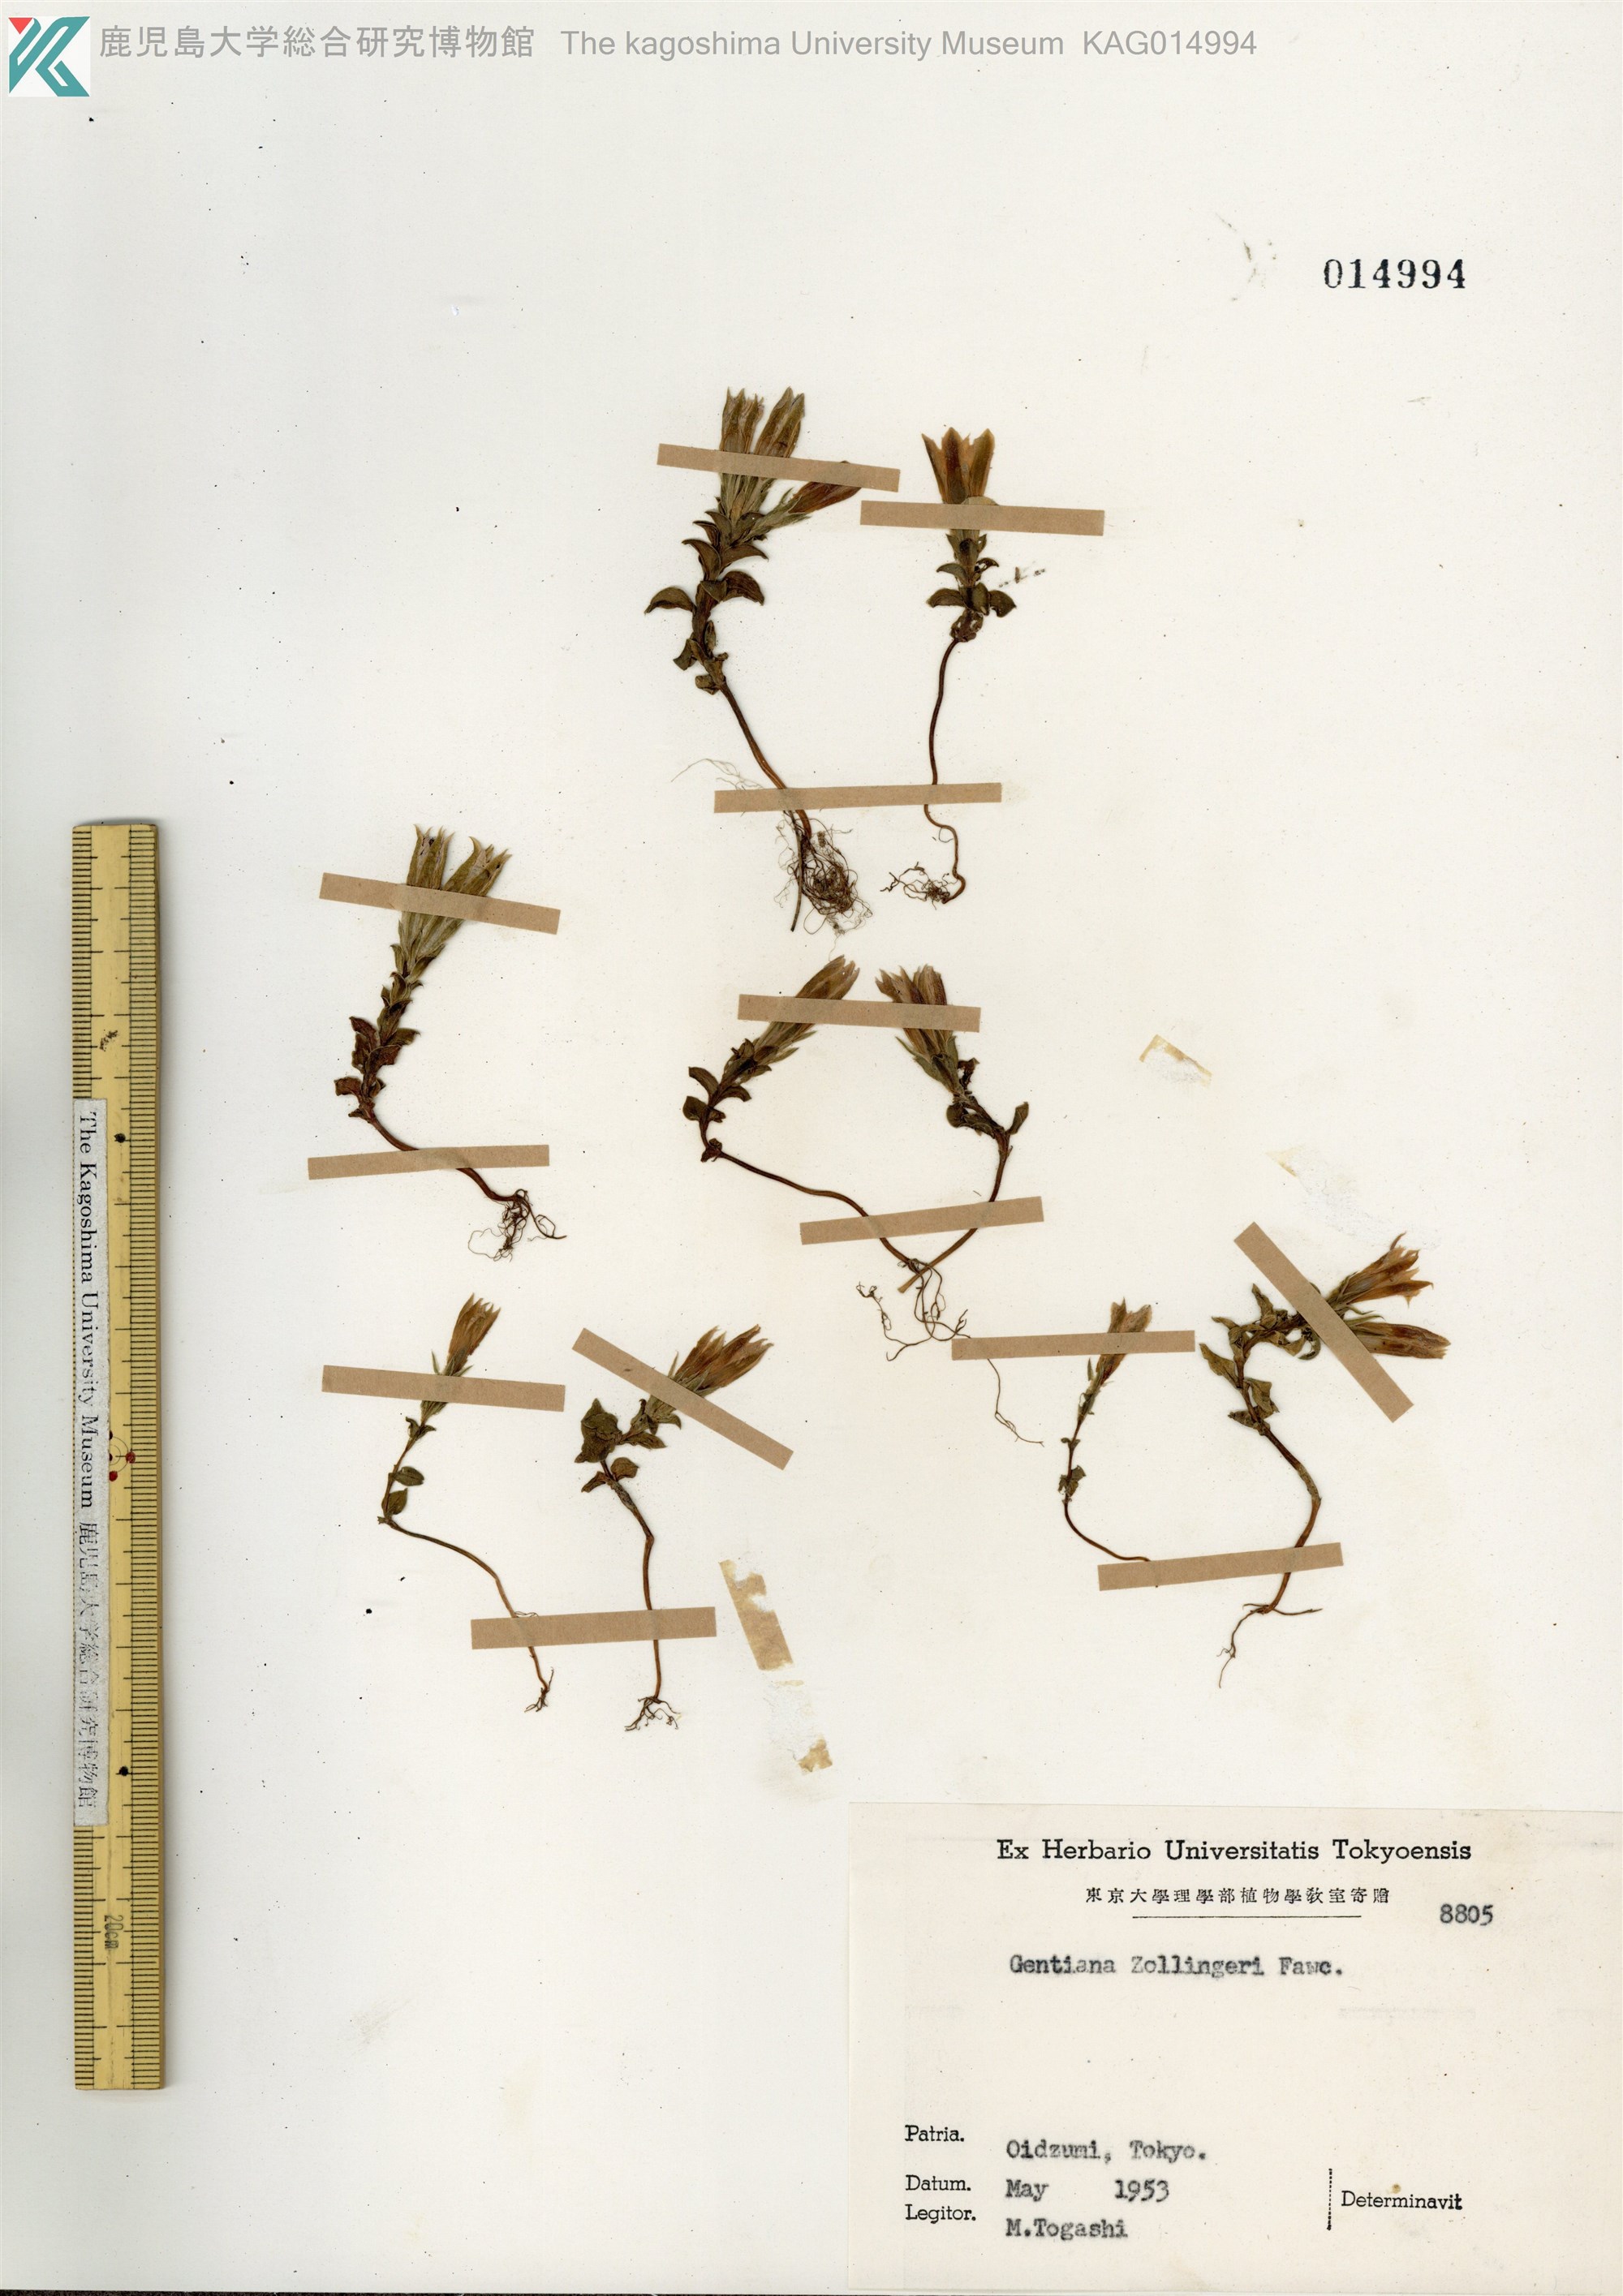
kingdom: Plantae
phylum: Tracheophyta
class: Magnoliopsida
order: Gentianales
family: Gentianaceae
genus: Gentiana
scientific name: Gentiana zollingeri
